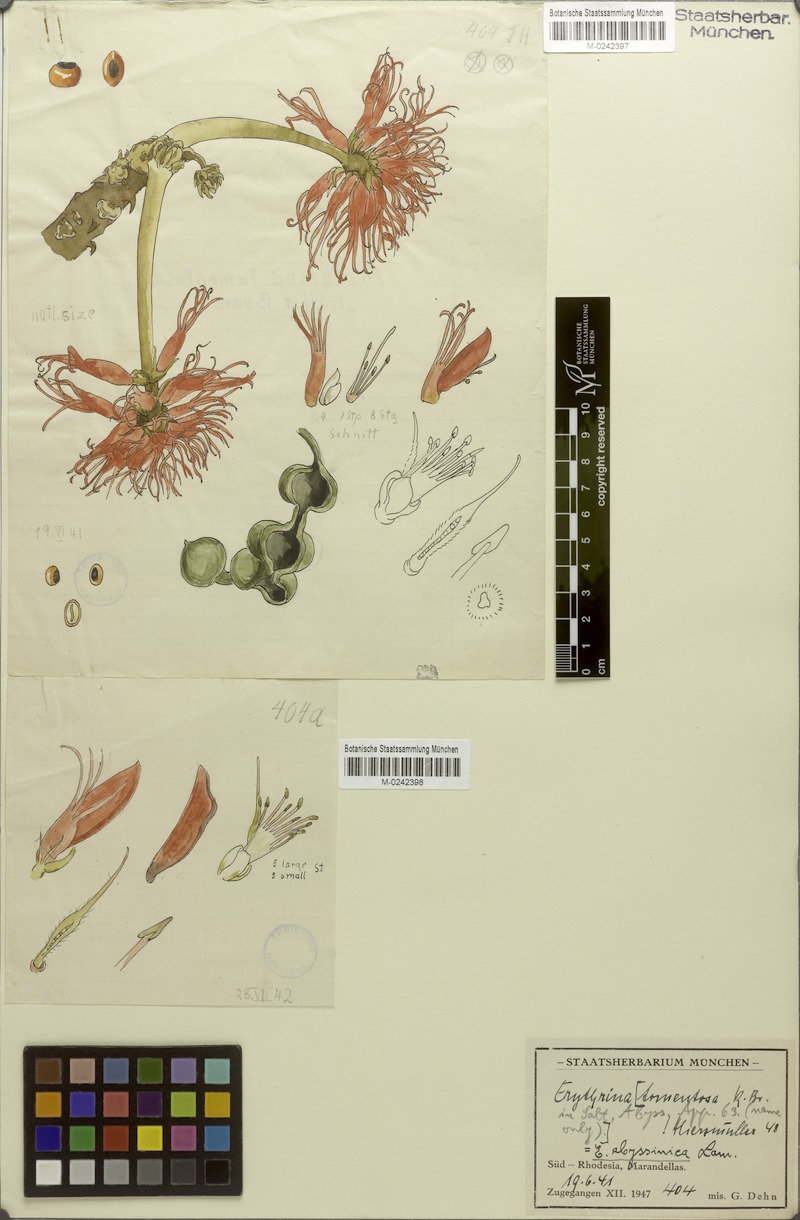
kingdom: Plantae
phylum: Tracheophyta
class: Magnoliopsida
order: Fabales
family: Fabaceae
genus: Erythrina
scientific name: Erythrina abyssinica
